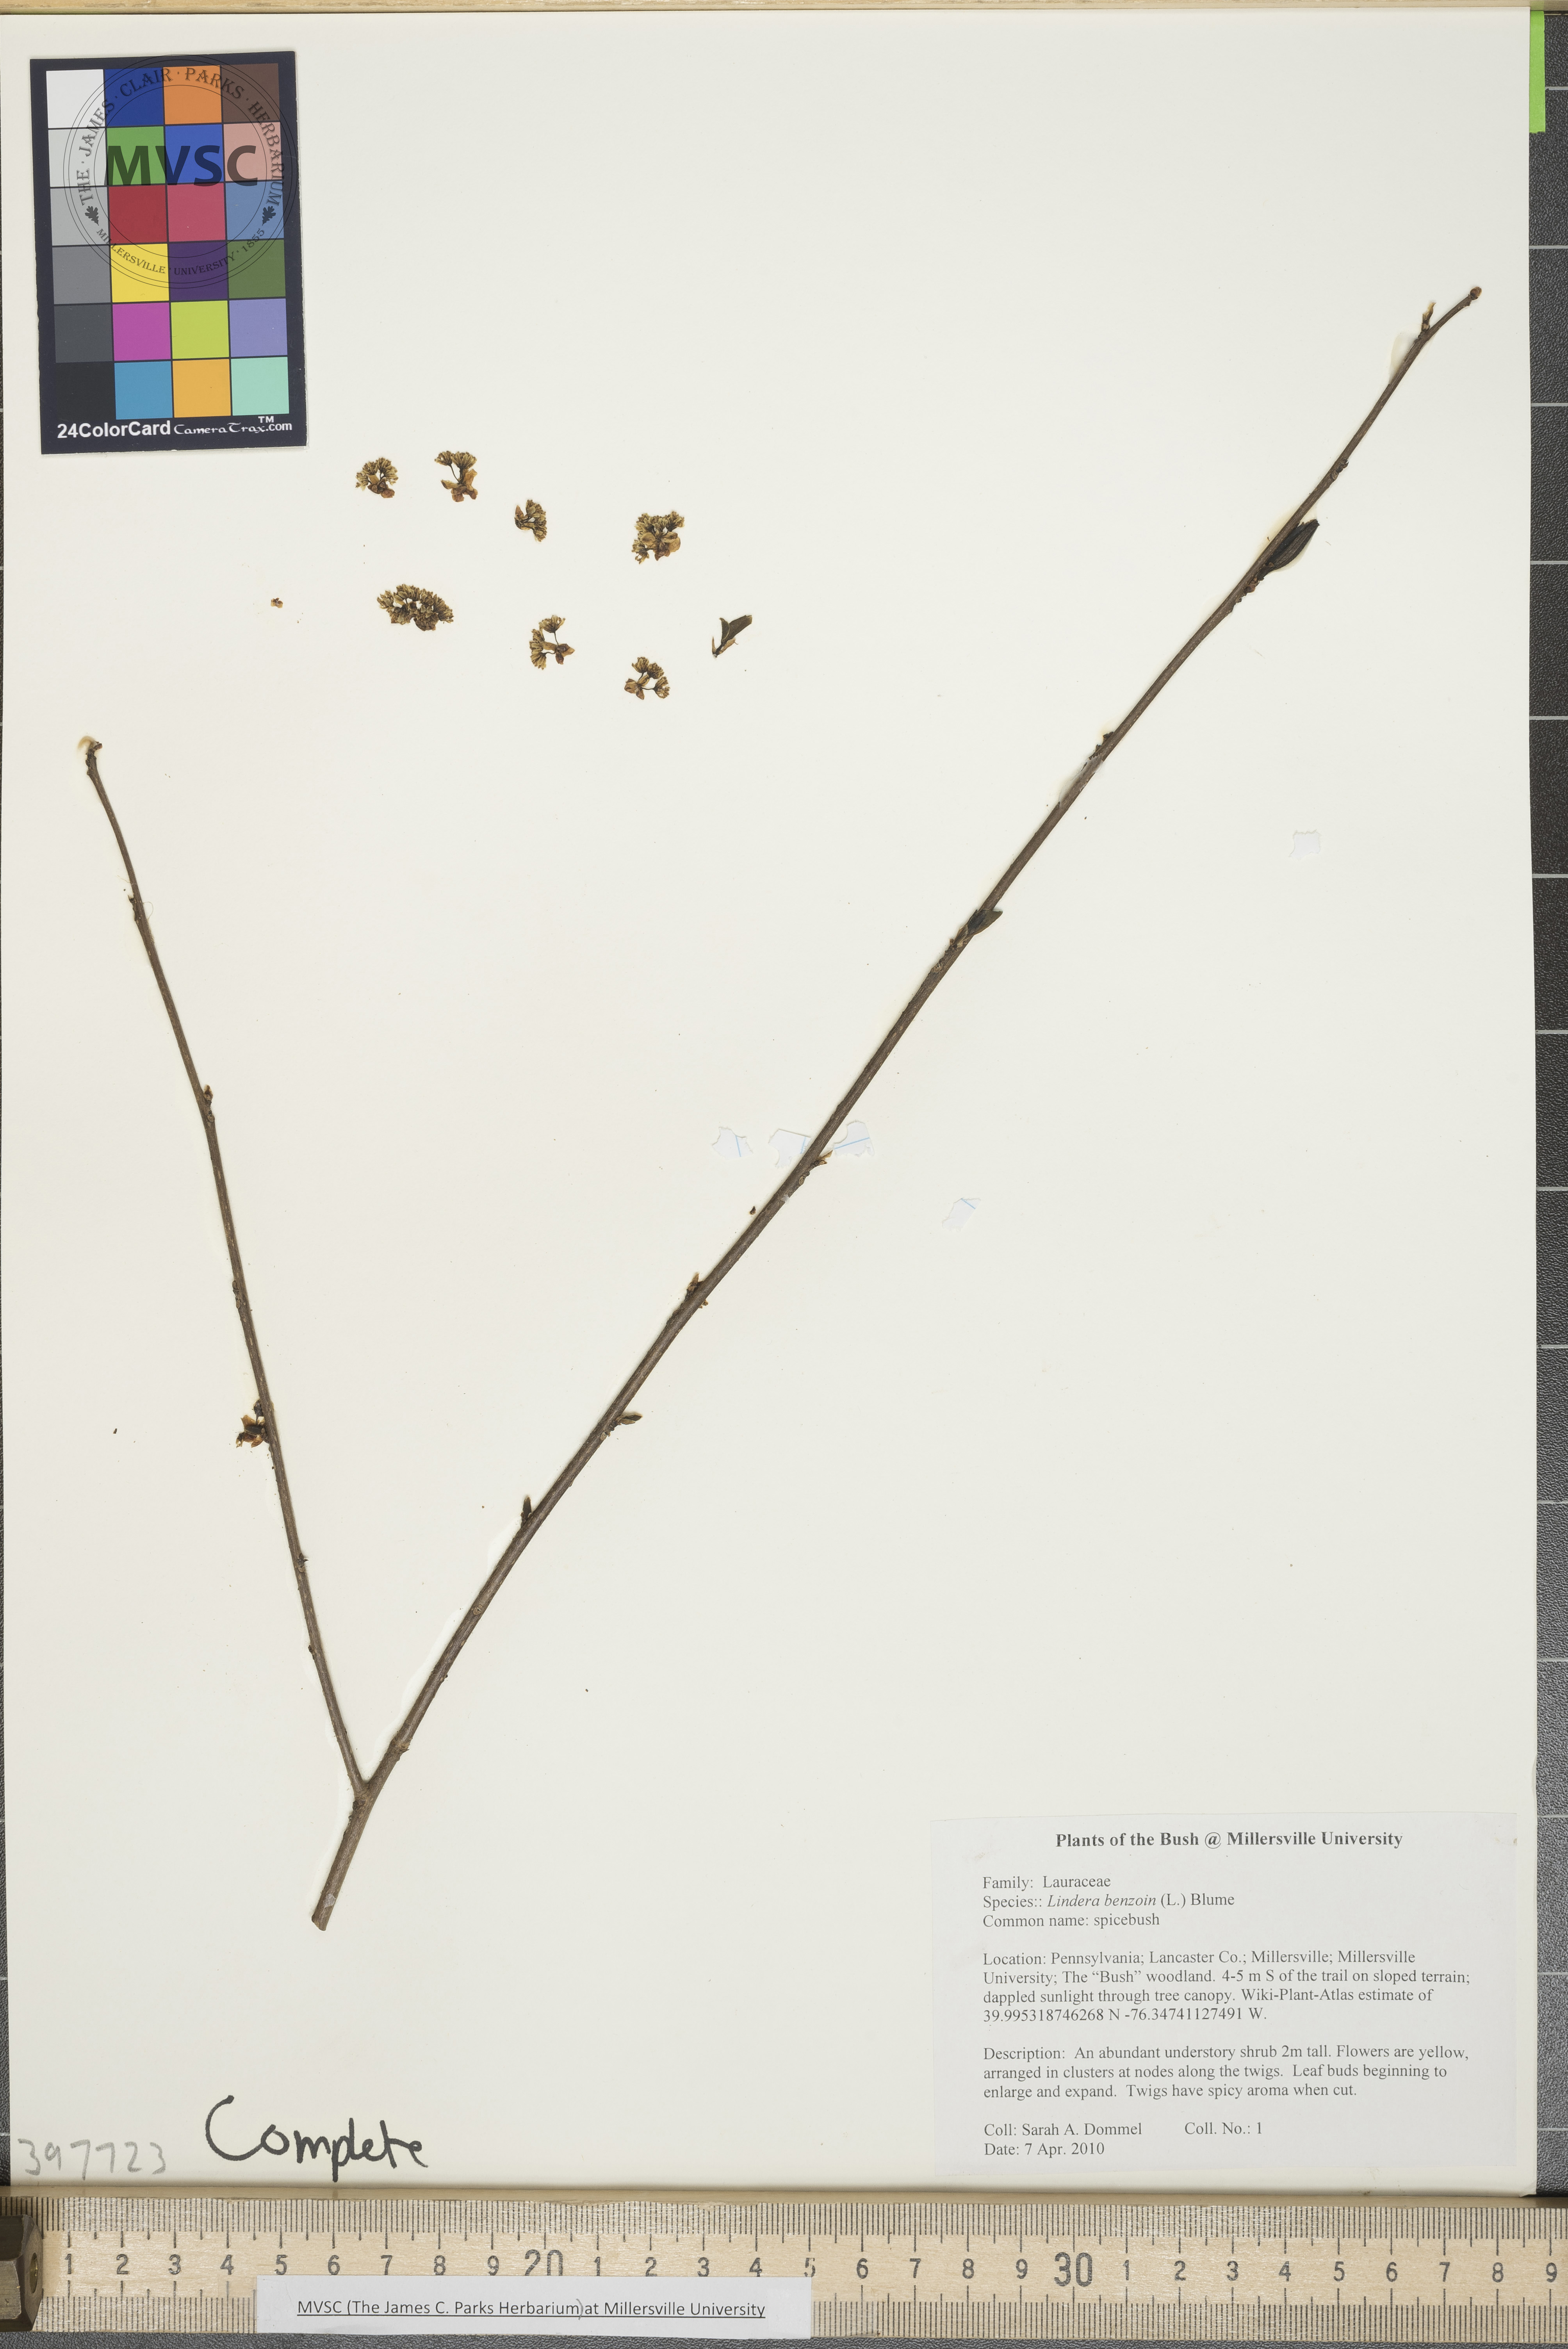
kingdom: Plantae
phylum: Tracheophyta
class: Magnoliopsida
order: Laurales
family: Lauraceae
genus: Lindera
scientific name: Lindera benzoin
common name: Spicebush
